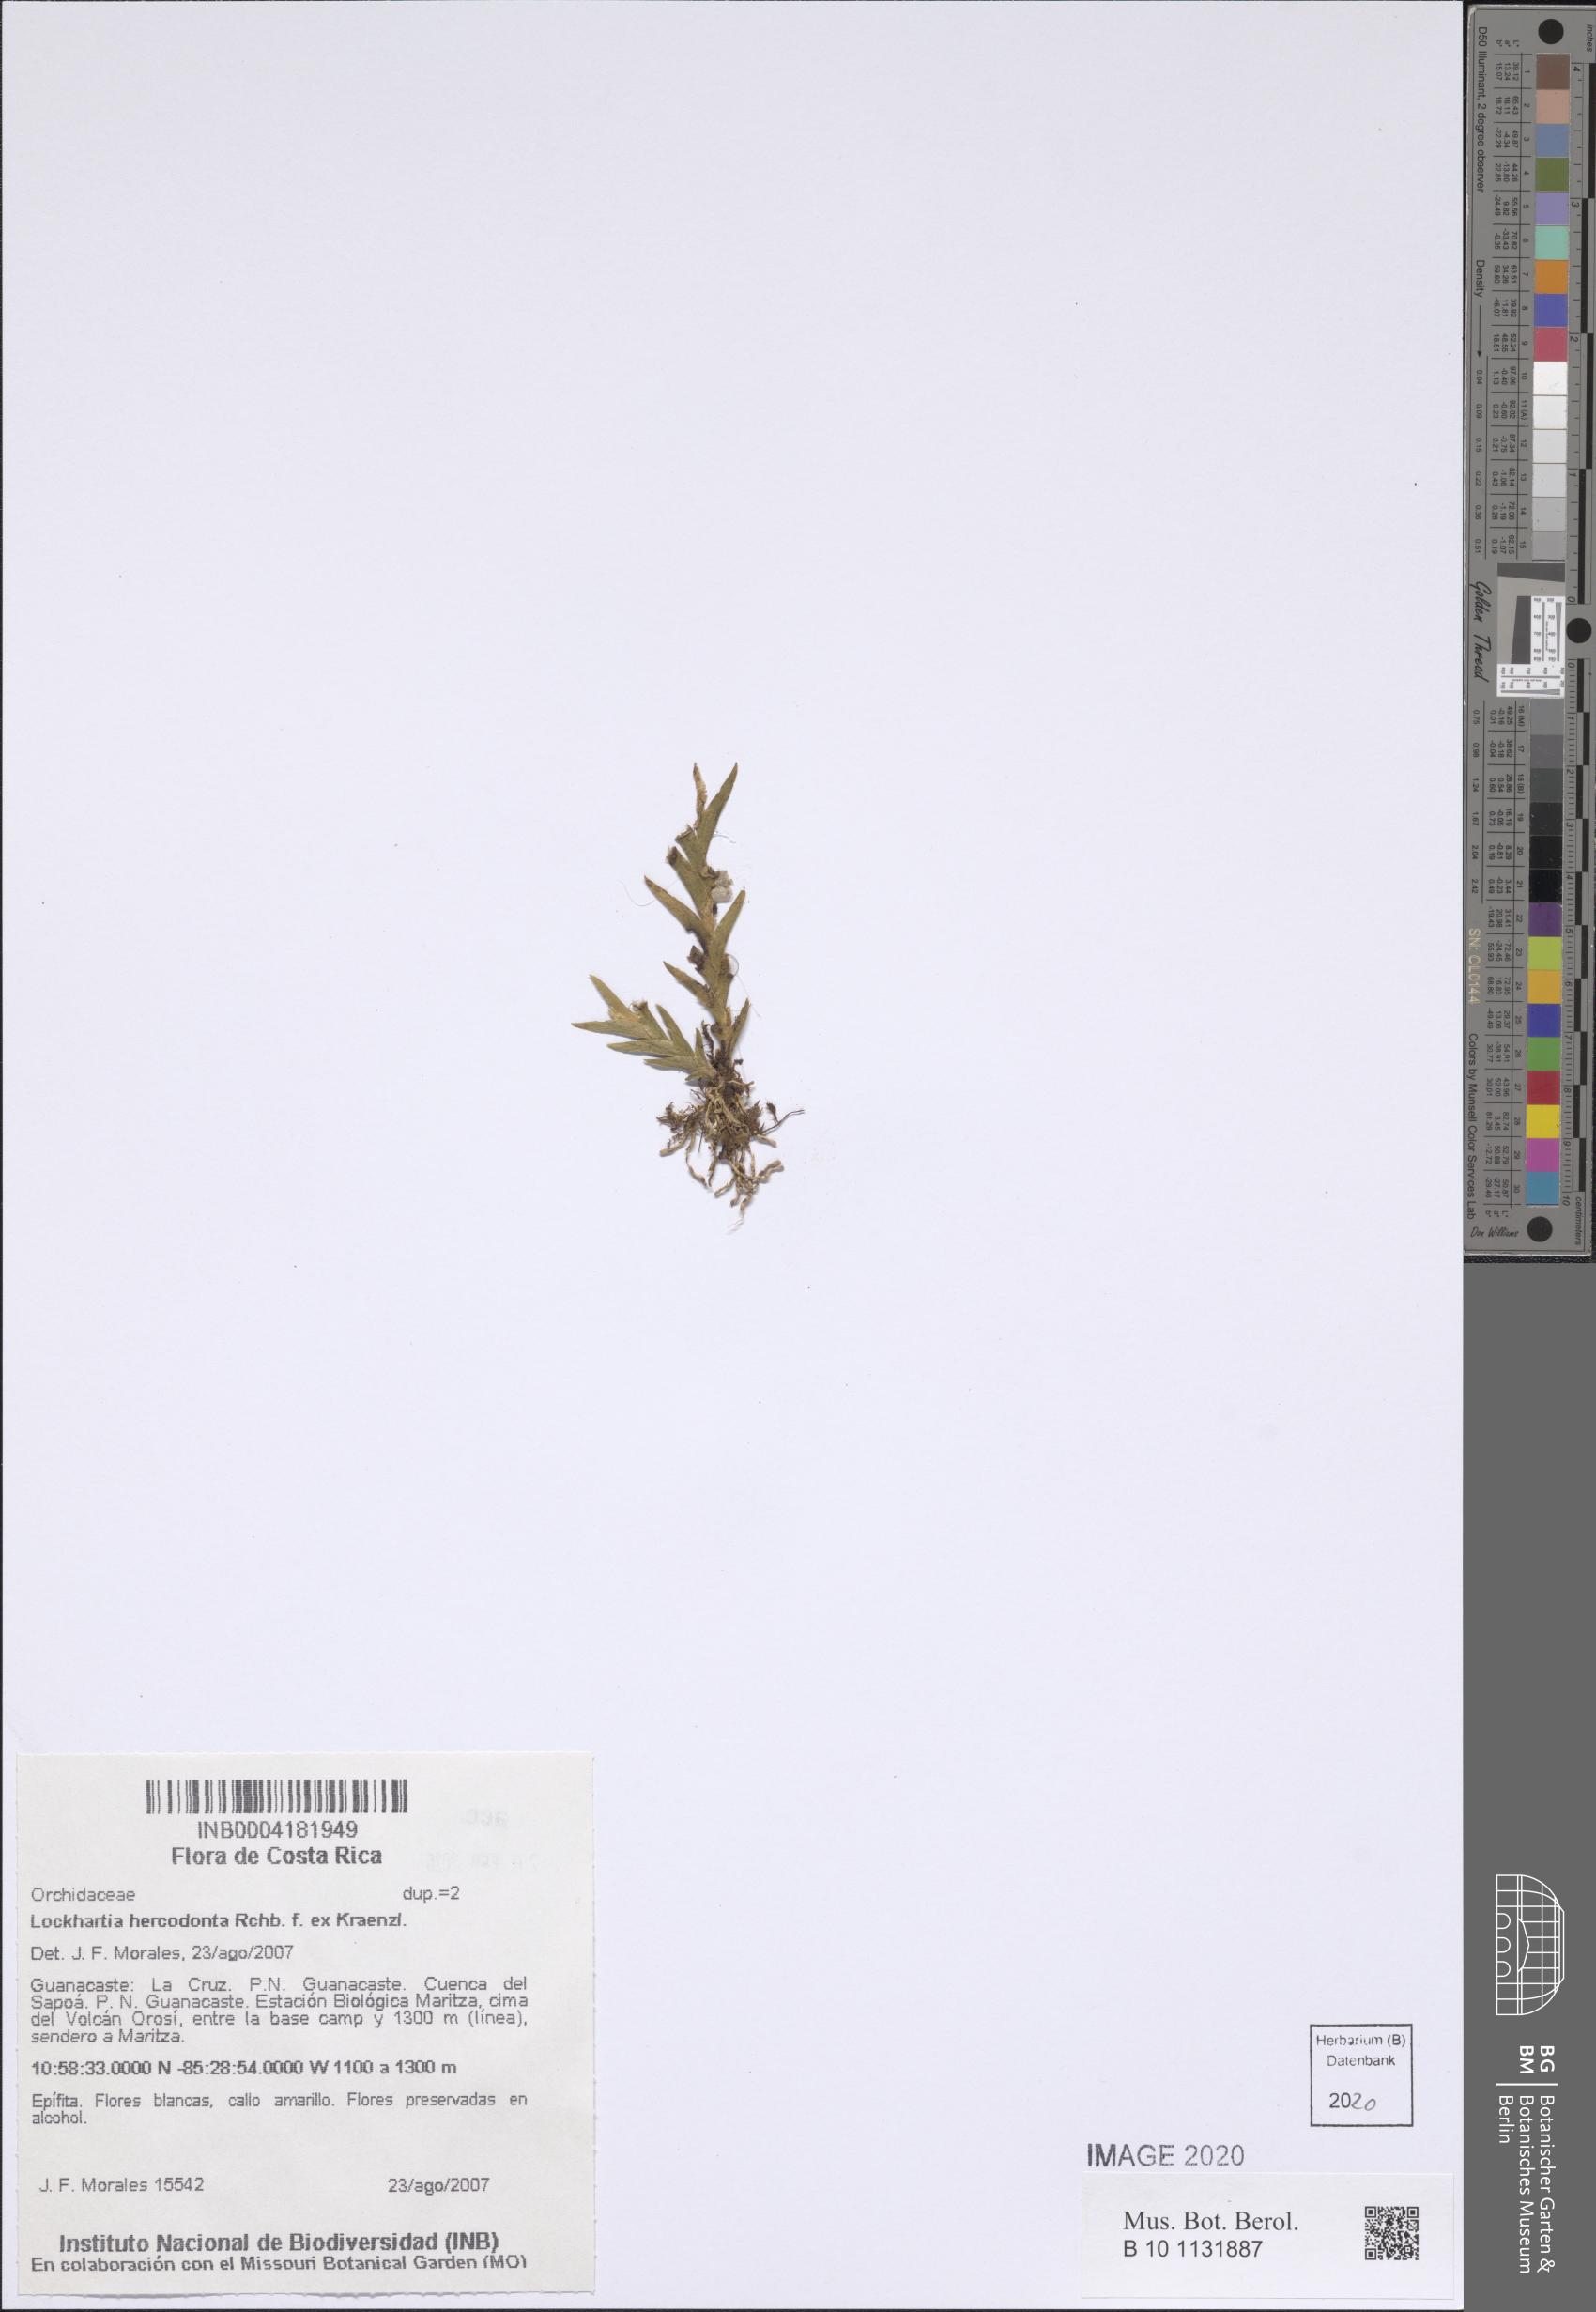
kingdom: Plantae
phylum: Tracheophyta
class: Liliopsida
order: Asparagales
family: Orchidaceae
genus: Lockhartia
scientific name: Lockhartia hercodonta
